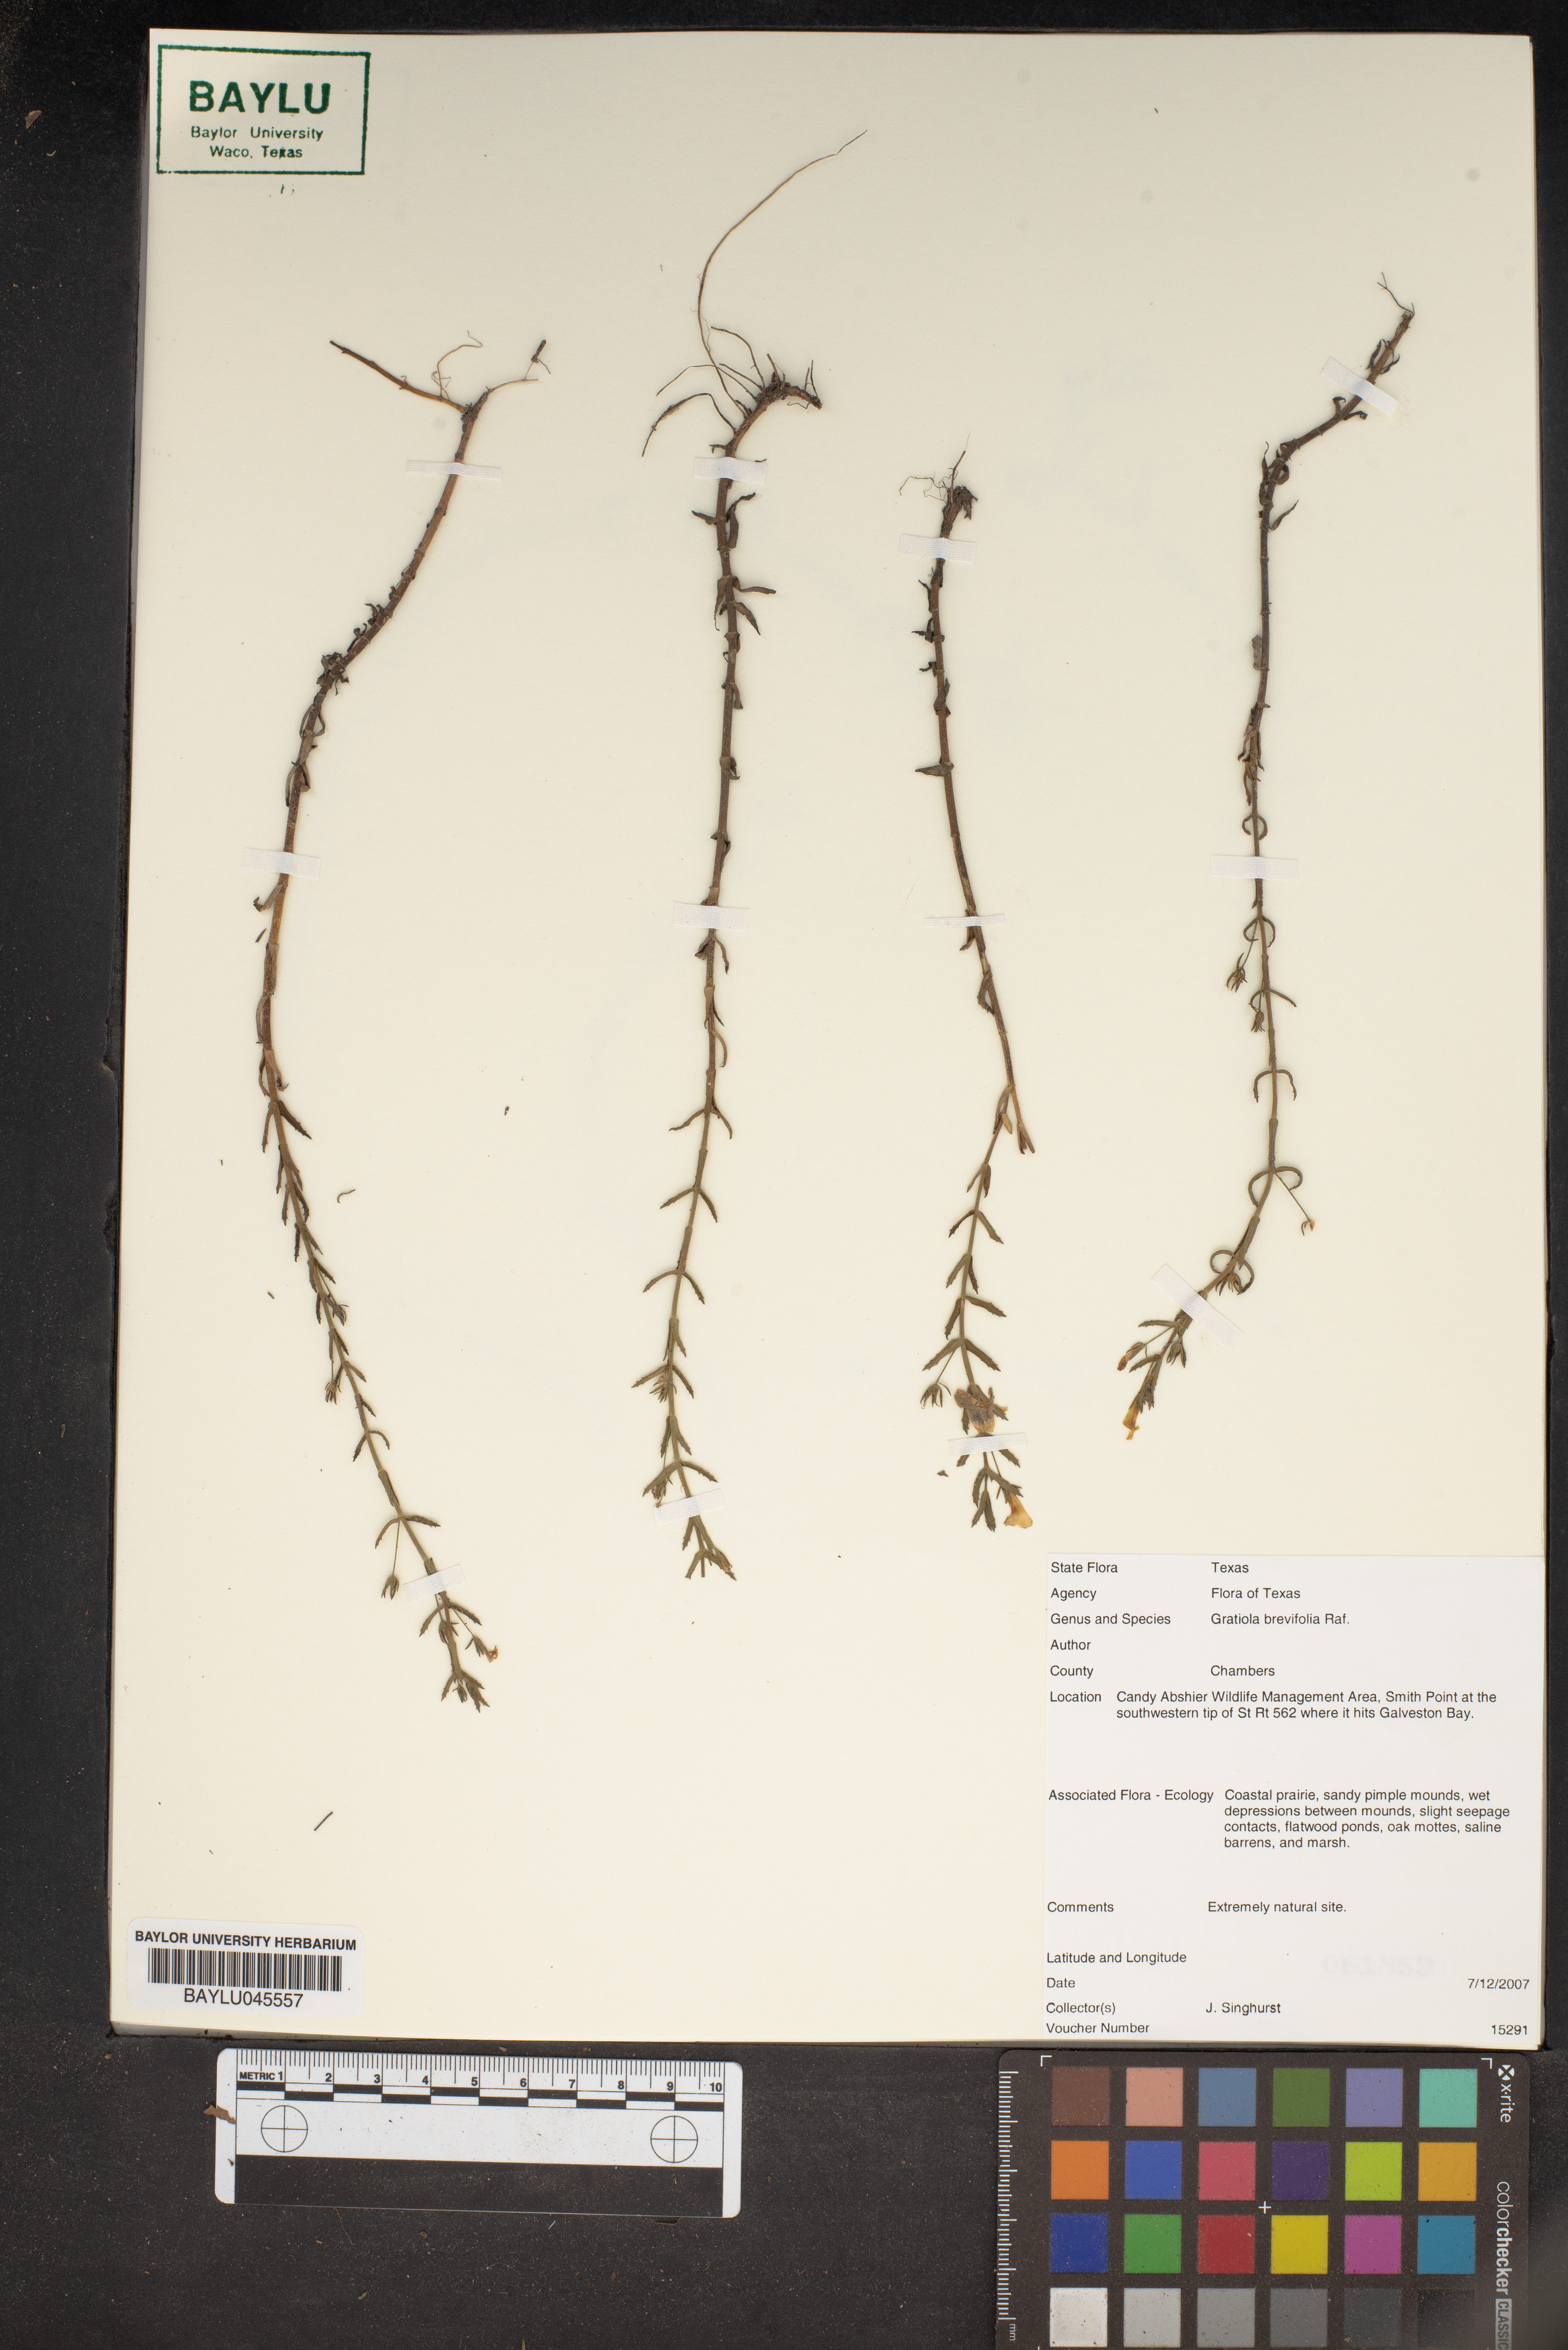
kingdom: Plantae
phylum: Tracheophyta
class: Magnoliopsida
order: Lamiales
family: Plantaginaceae
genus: Gratiola
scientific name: Gratiola brevifolia
